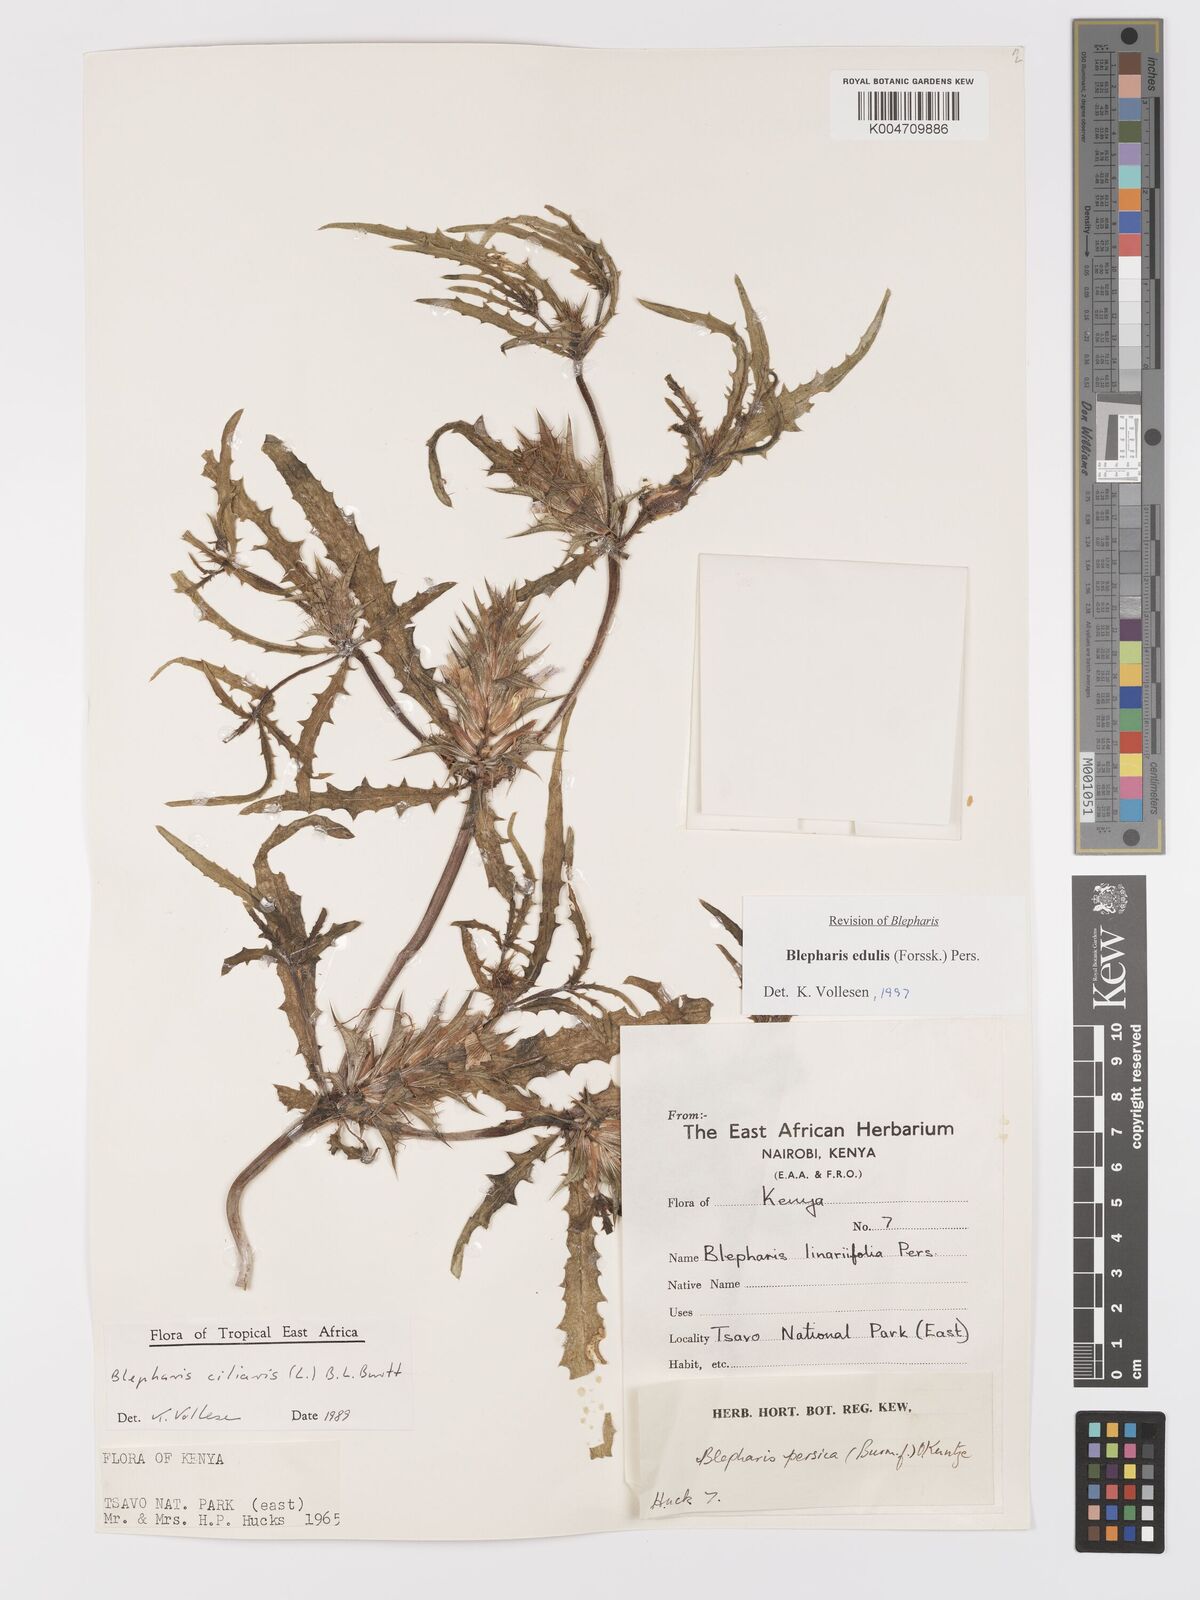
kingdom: Plantae
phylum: Tracheophyta
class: Magnoliopsida
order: Lamiales
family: Acanthaceae
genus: Blepharis
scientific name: Blepharis edulis
